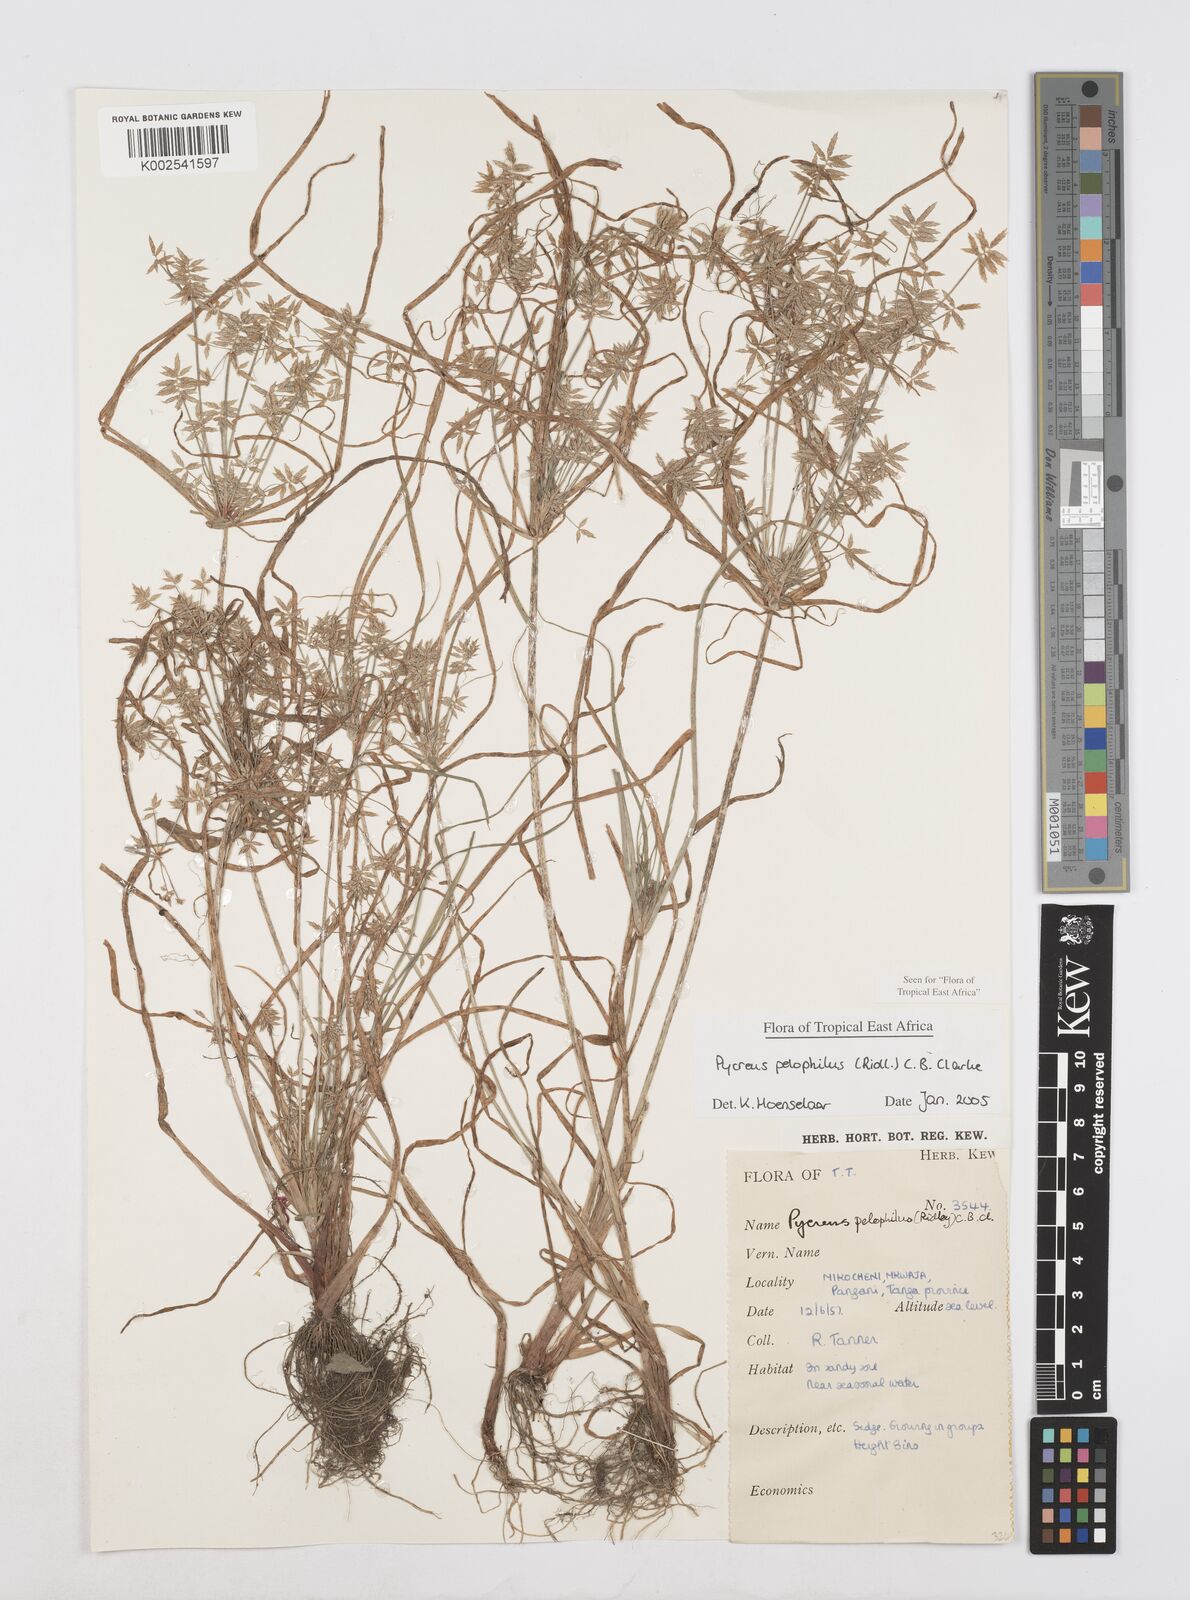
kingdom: Plantae
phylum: Tracheophyta
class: Liliopsida
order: Poales
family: Cyperaceae
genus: Cyperus
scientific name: Cyperus pelophilus
